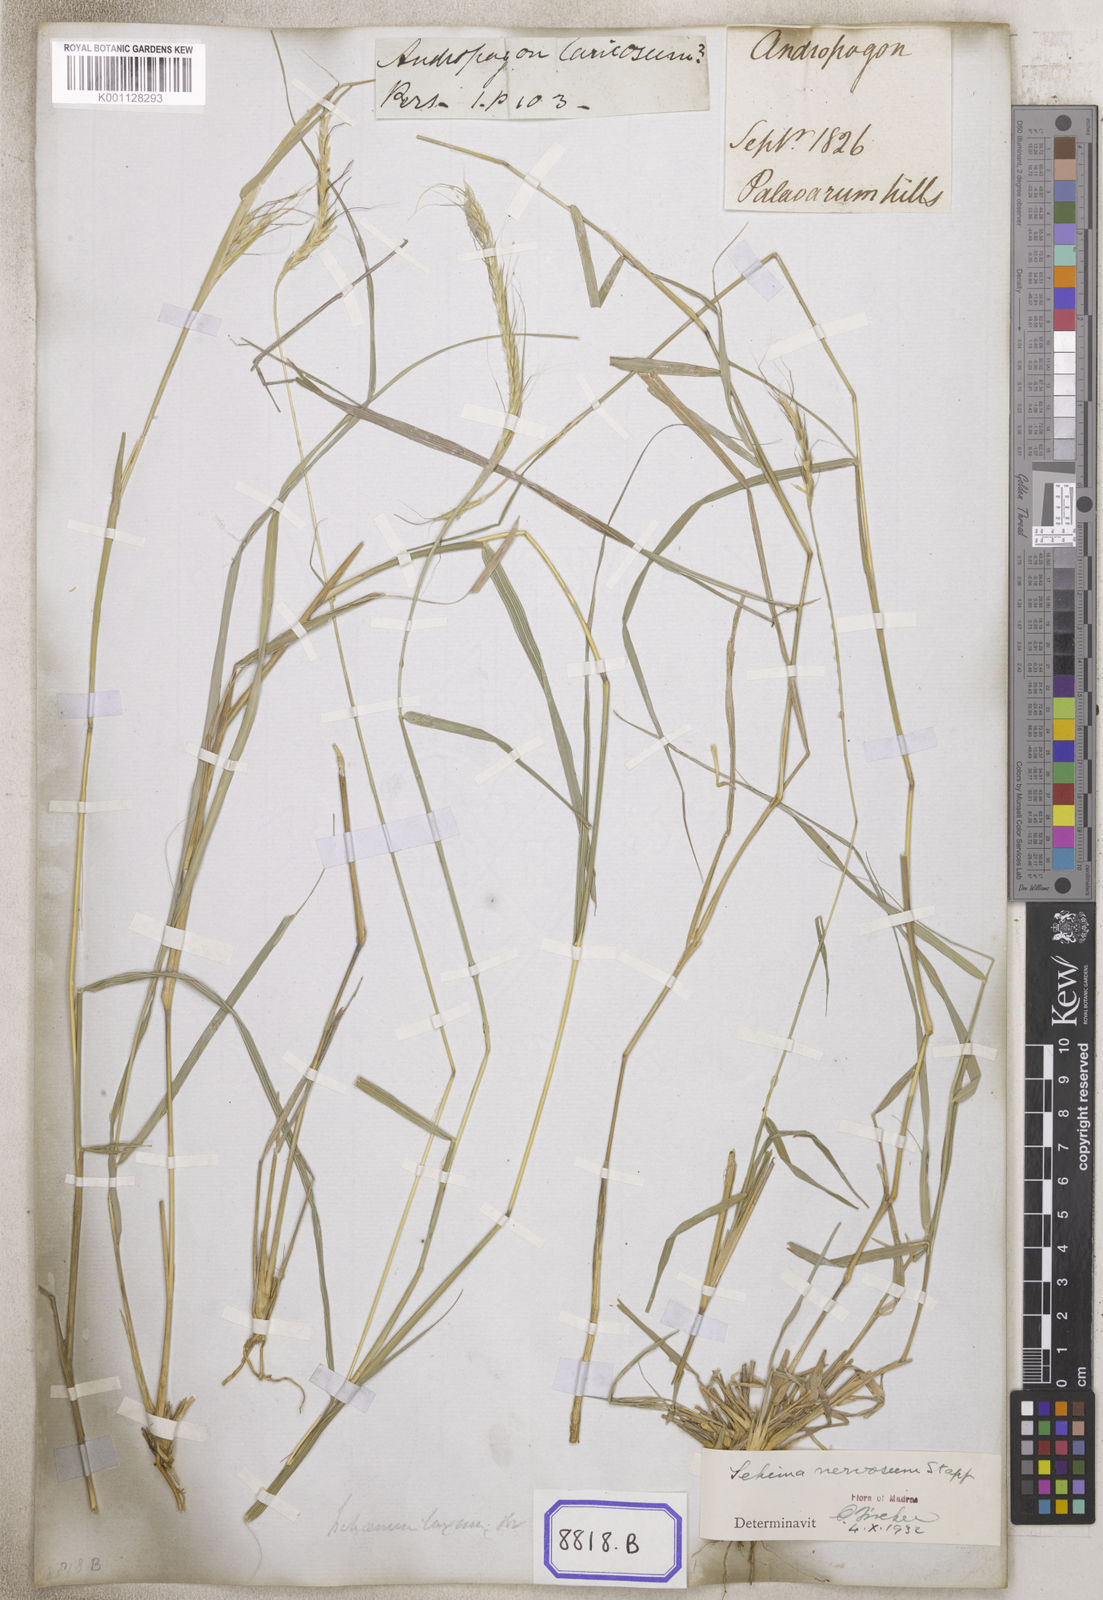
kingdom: Plantae
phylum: Tracheophyta
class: Liliopsida
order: Poales
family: Poaceae
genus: Andropogon
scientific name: Andropogon
